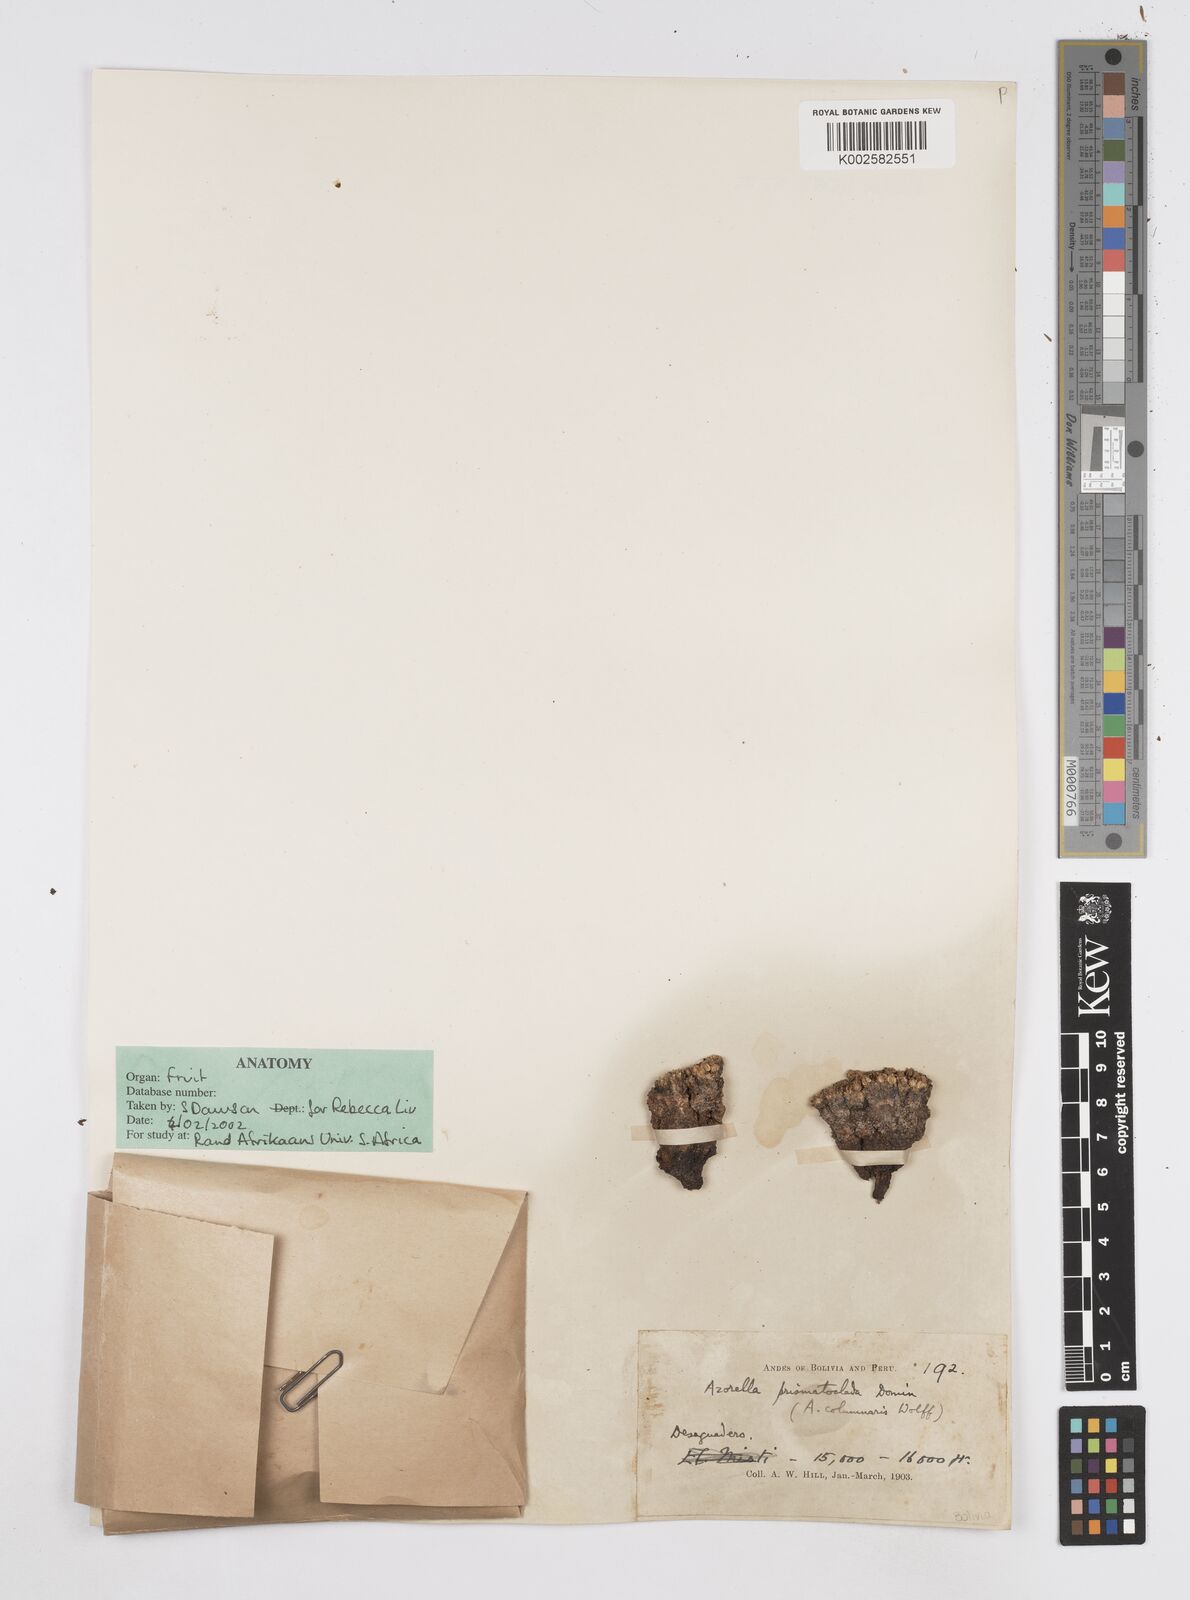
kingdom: Plantae
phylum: Tracheophyta
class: Magnoliopsida
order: Apiales
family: Apiaceae
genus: Azorella
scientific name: Azorella compacta
